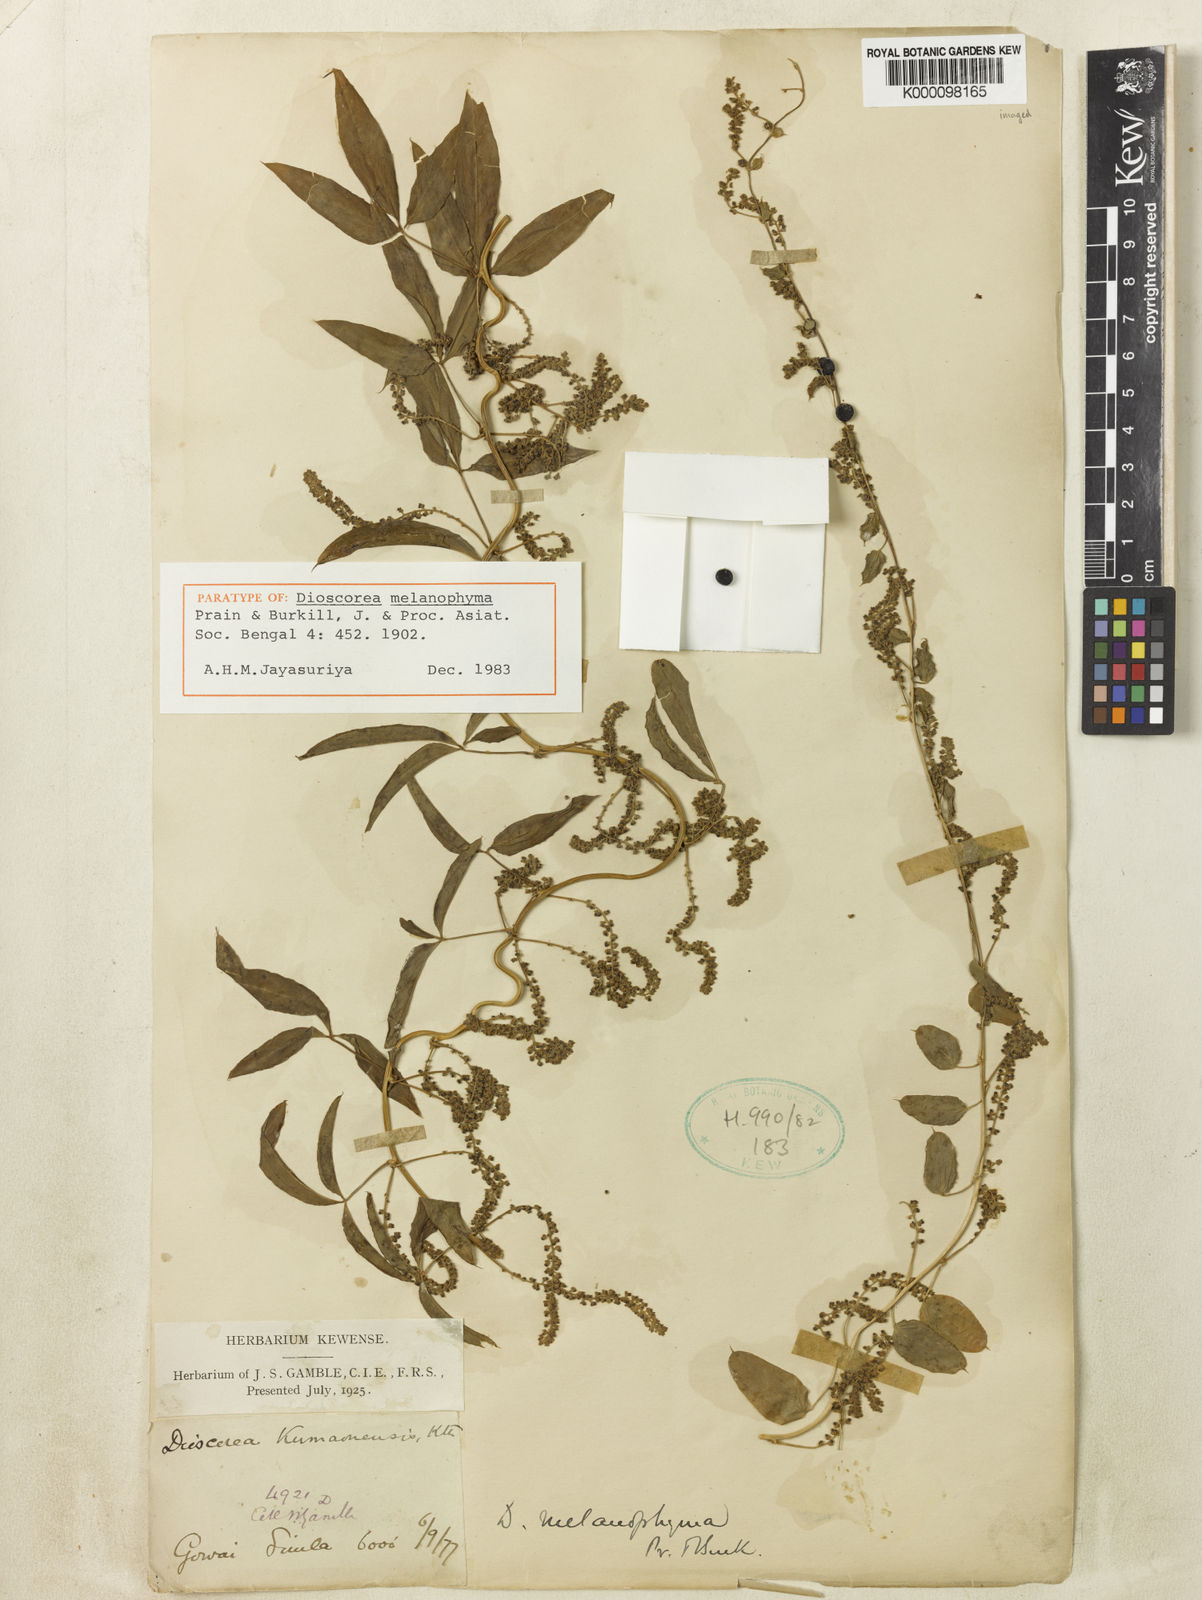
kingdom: Plantae
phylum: Tracheophyta
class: Liliopsida
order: Dioscoreales
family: Dioscoreaceae
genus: Dioscorea
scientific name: Dioscorea melanophyma
